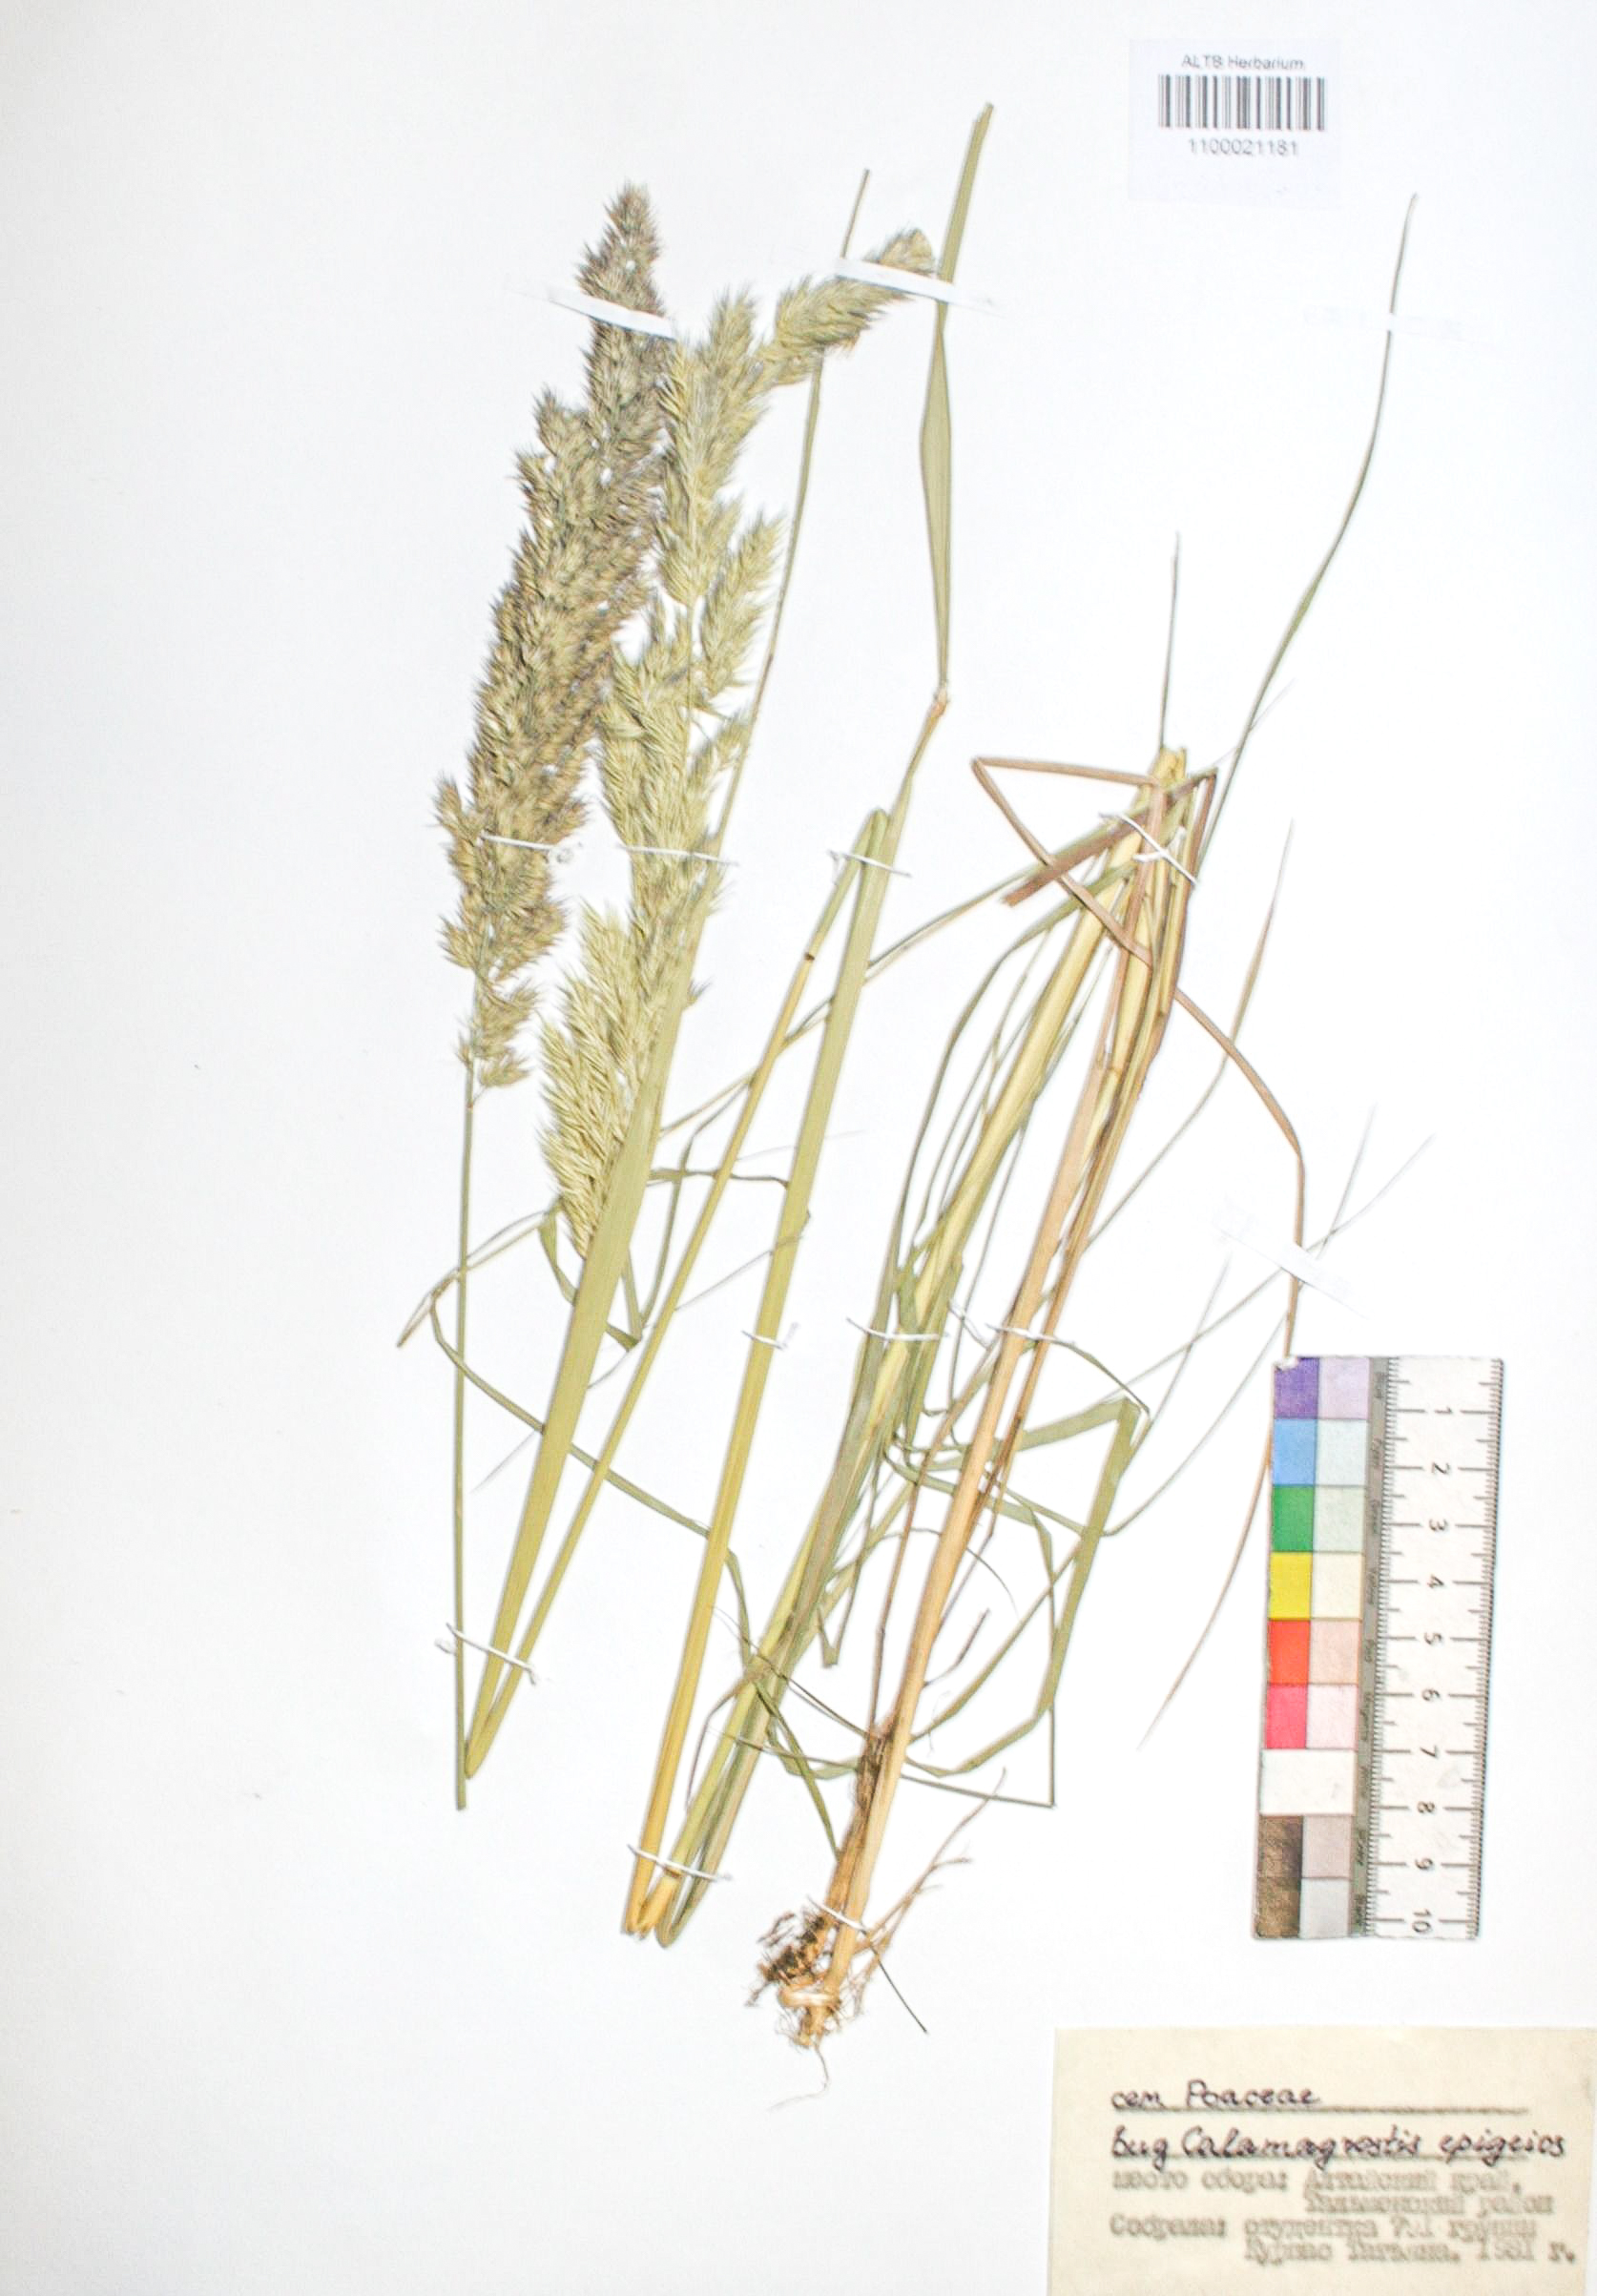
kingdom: Plantae
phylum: Tracheophyta
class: Liliopsida
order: Poales
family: Poaceae
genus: Calamagrostis
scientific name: Calamagrostis epigejos
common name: Wood small-reed
